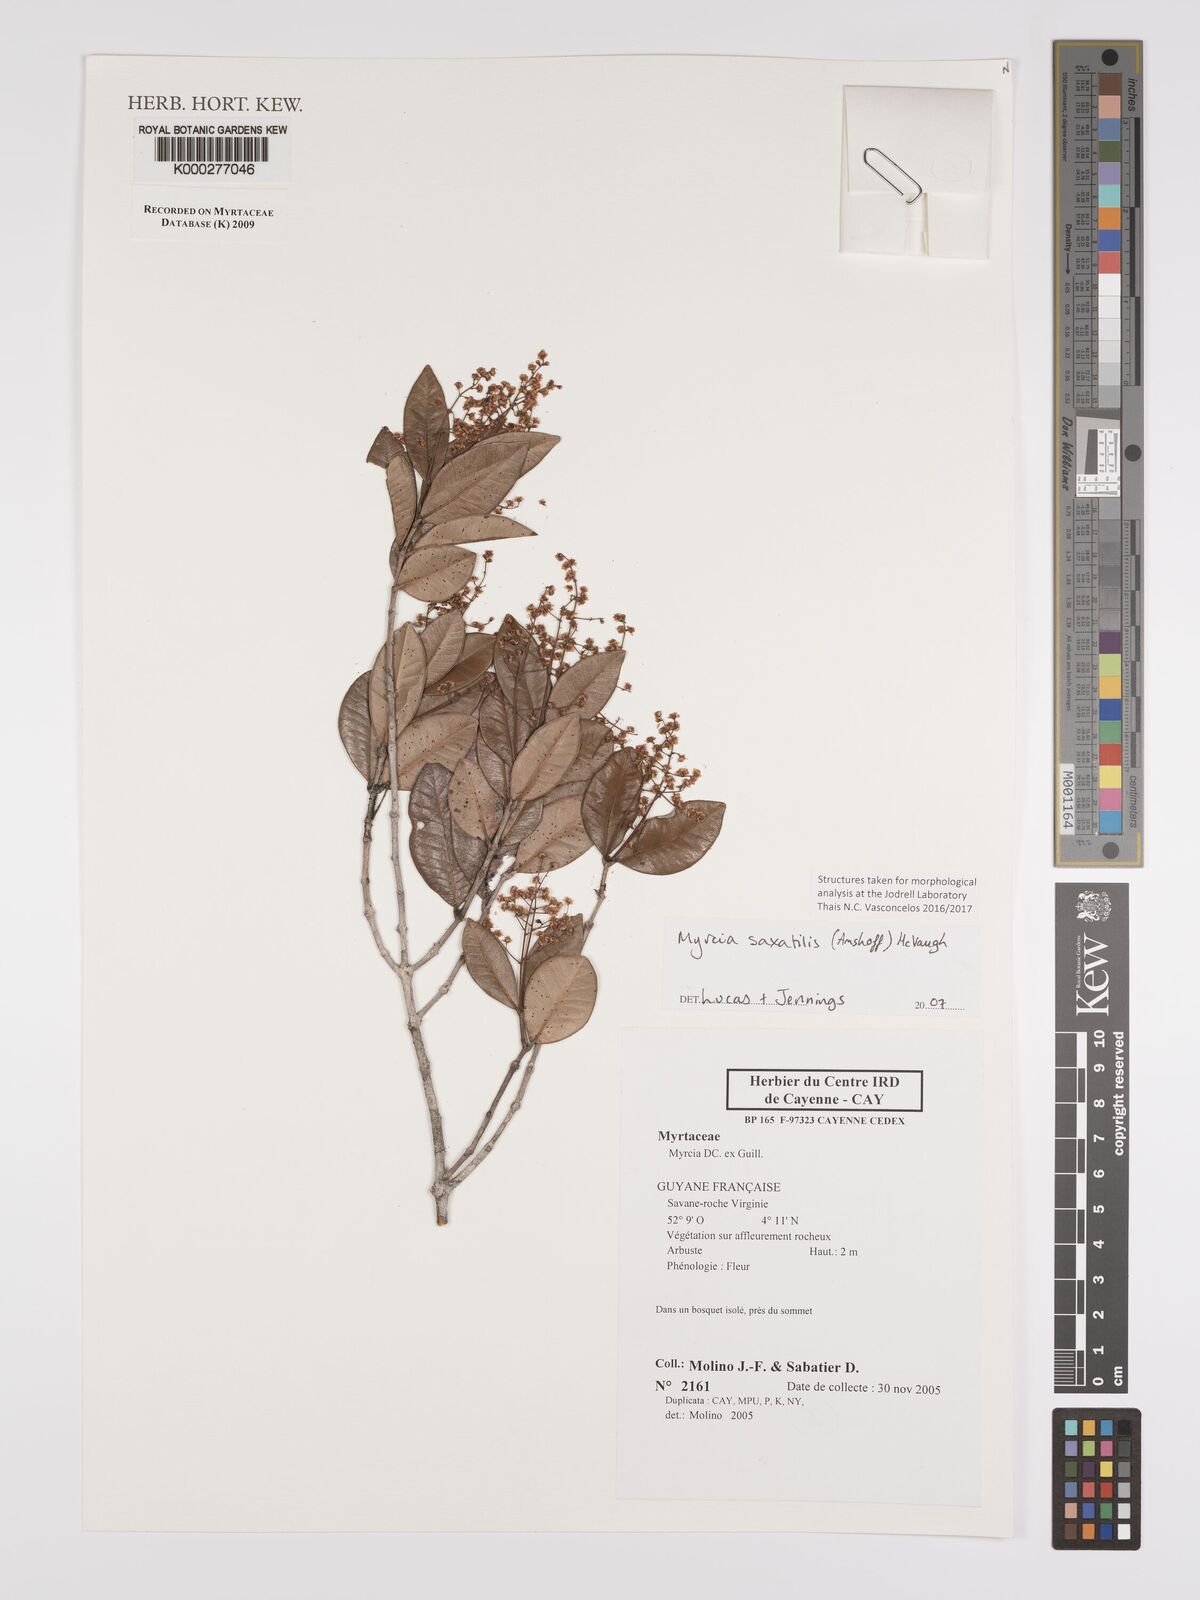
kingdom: Plantae
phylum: Tracheophyta
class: Magnoliopsida
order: Myrtales
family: Myrtaceae
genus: Myrcia
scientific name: Myrcia saxatilis
